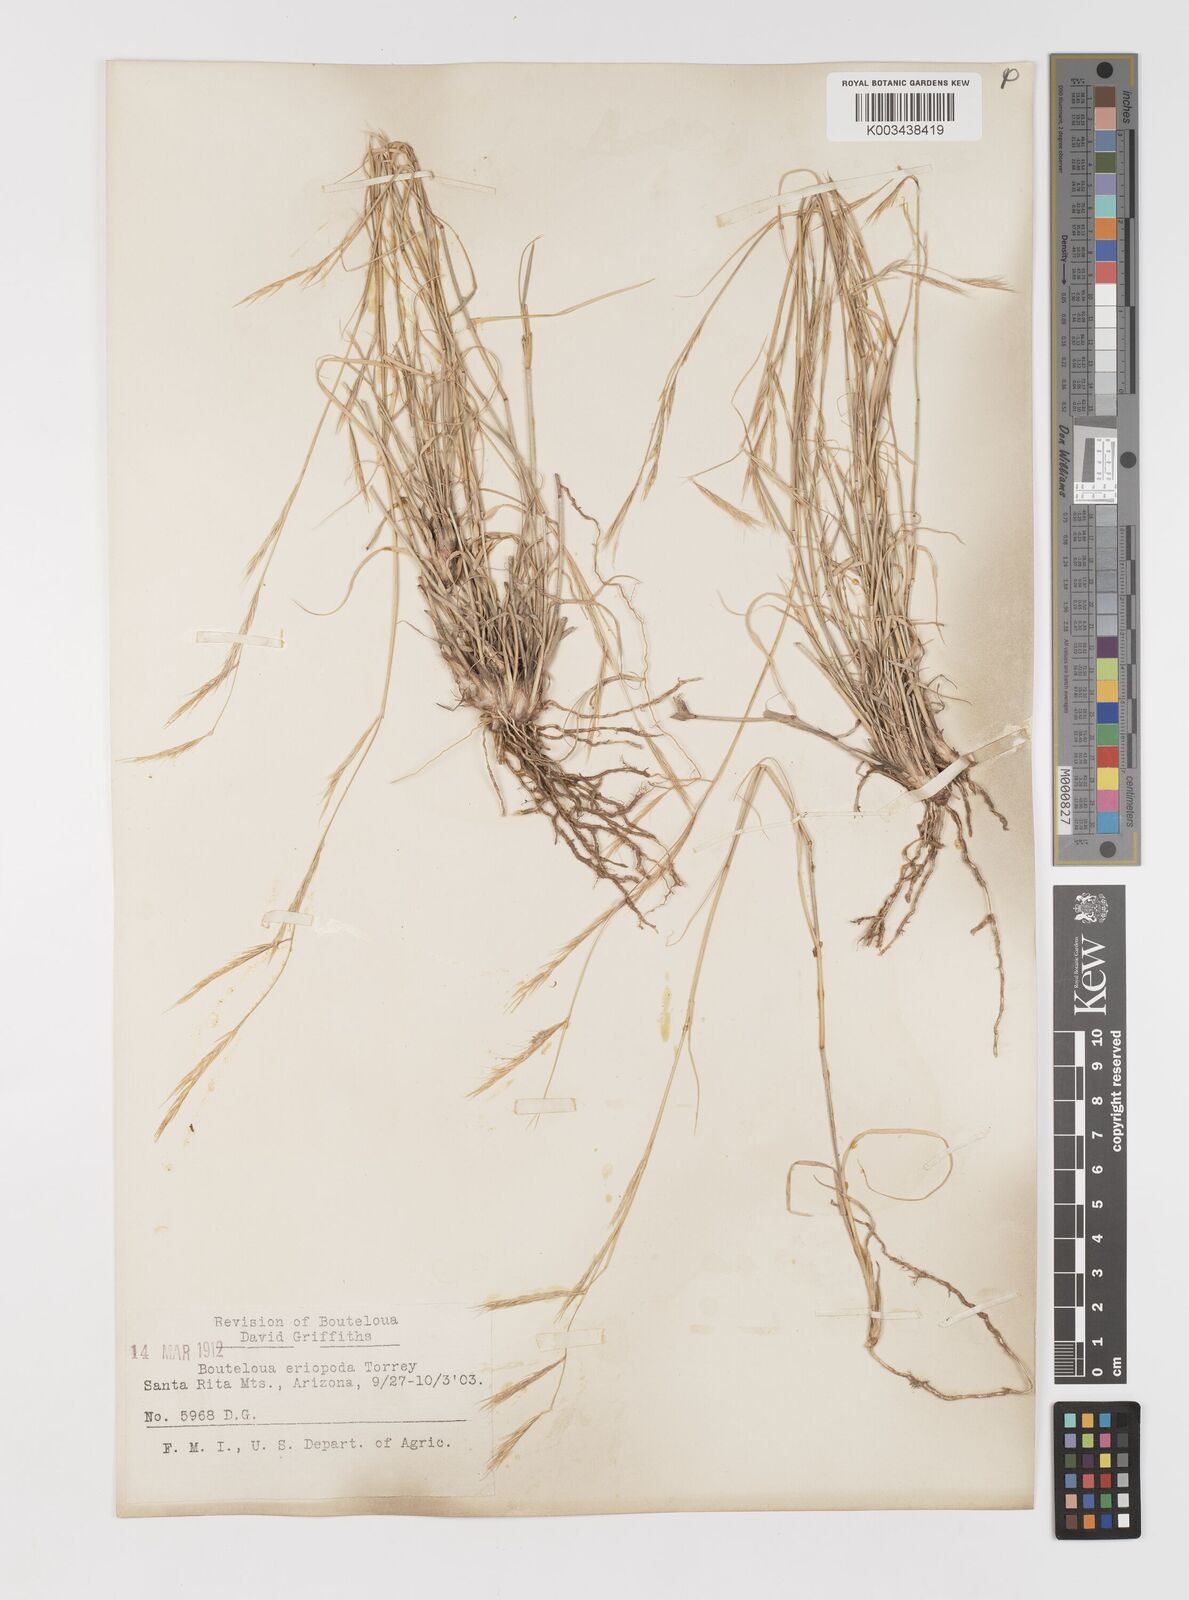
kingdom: Plantae
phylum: Tracheophyta
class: Liliopsida
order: Poales
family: Poaceae
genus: Bouteloua
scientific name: Bouteloua eriopoda
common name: Woolly foot grama
